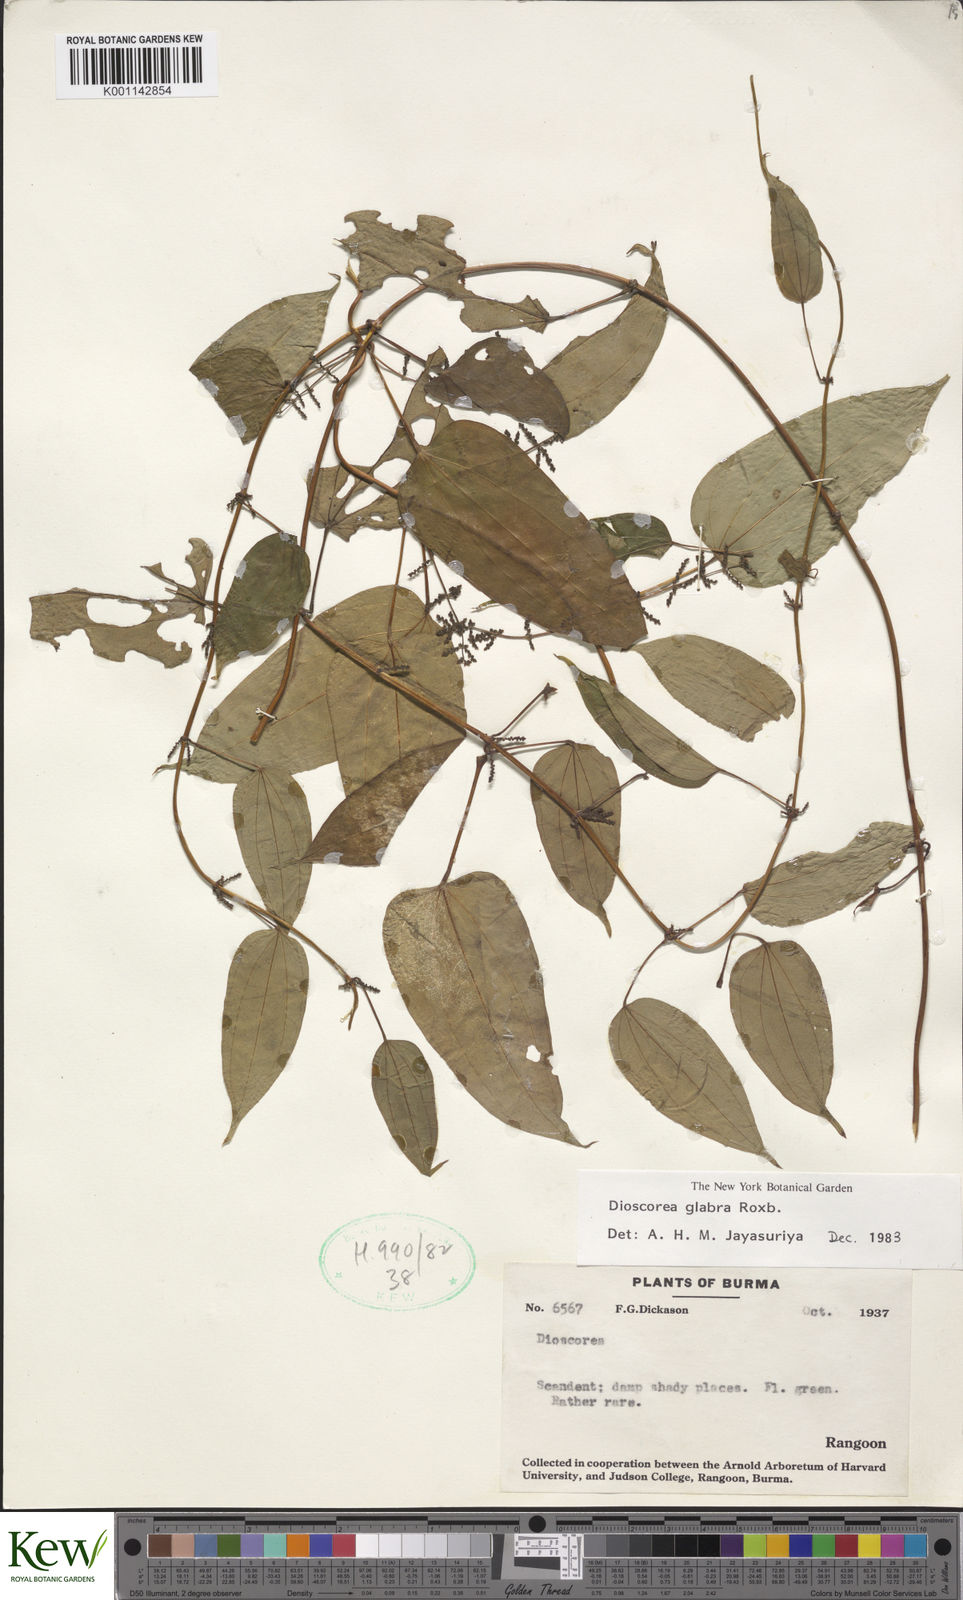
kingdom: Plantae
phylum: Tracheophyta
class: Liliopsida
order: Dioscoreales
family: Dioscoreaceae
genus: Dioscorea
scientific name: Dioscorea glabra
